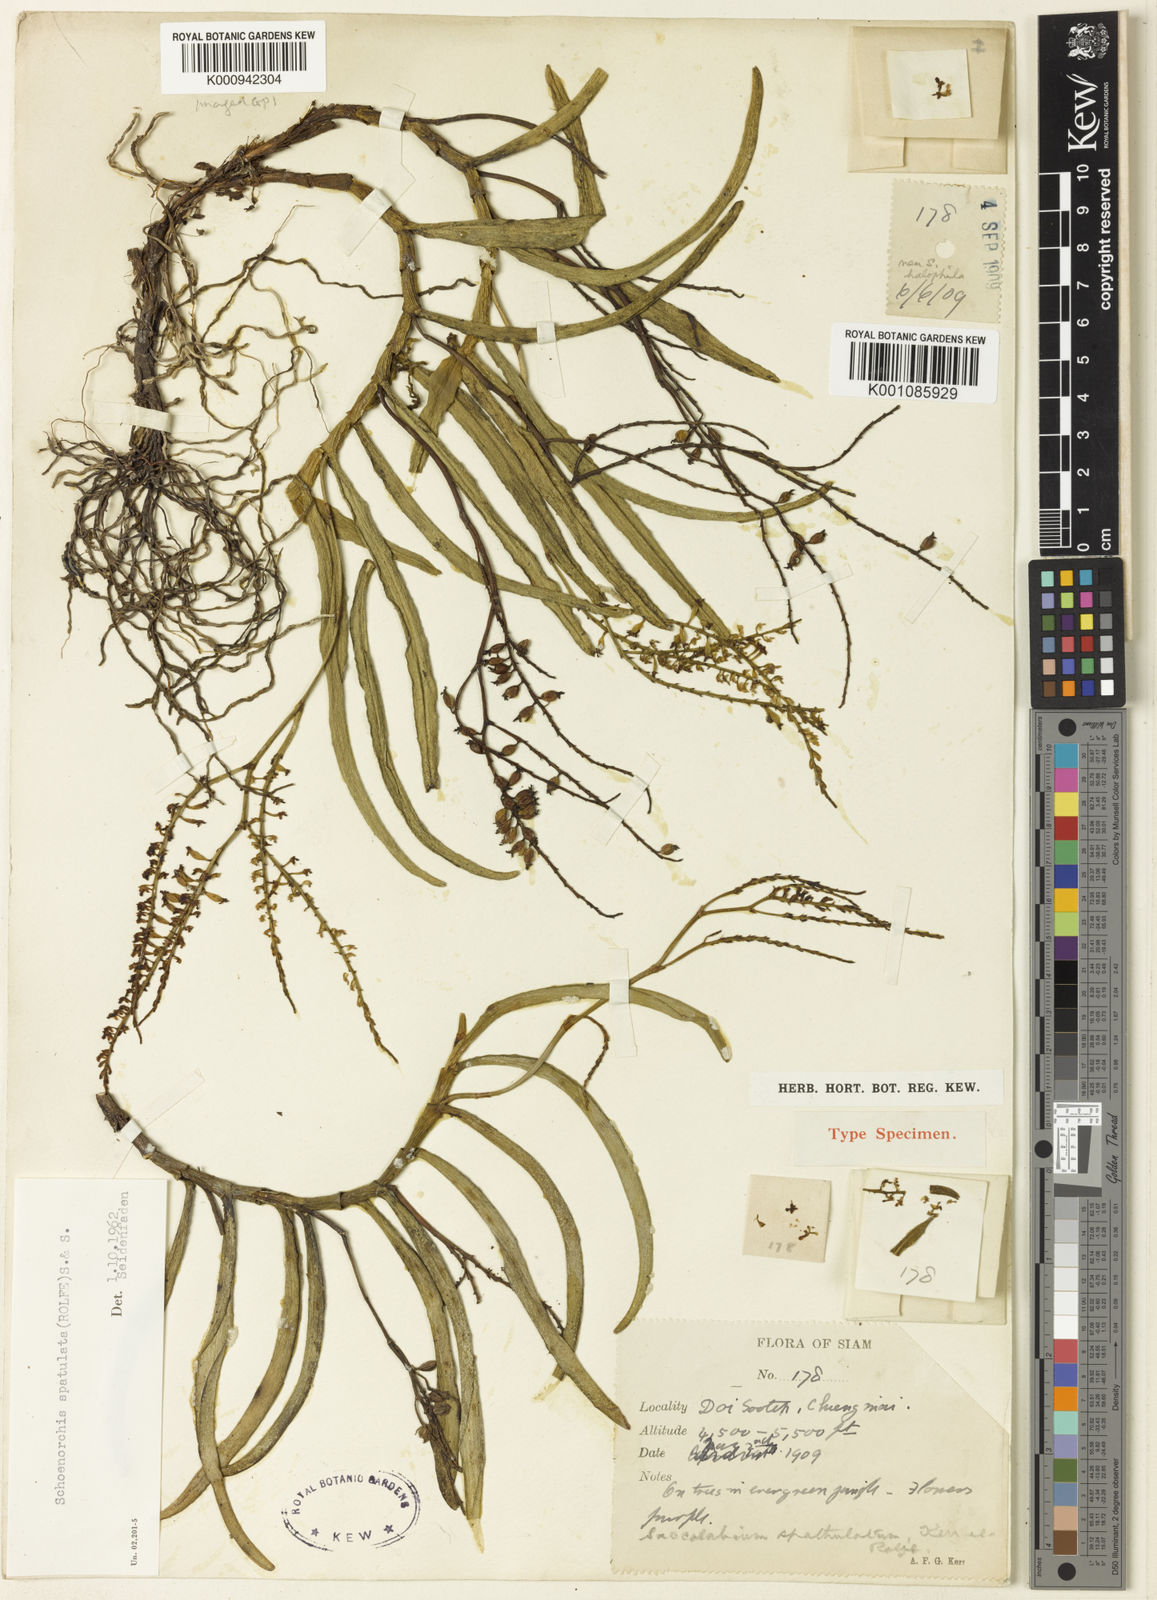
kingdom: Plantae
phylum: Tracheophyta
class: Liliopsida
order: Asparagales
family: Orchidaceae
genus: Schoenorchis
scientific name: Schoenorchis gemmata
